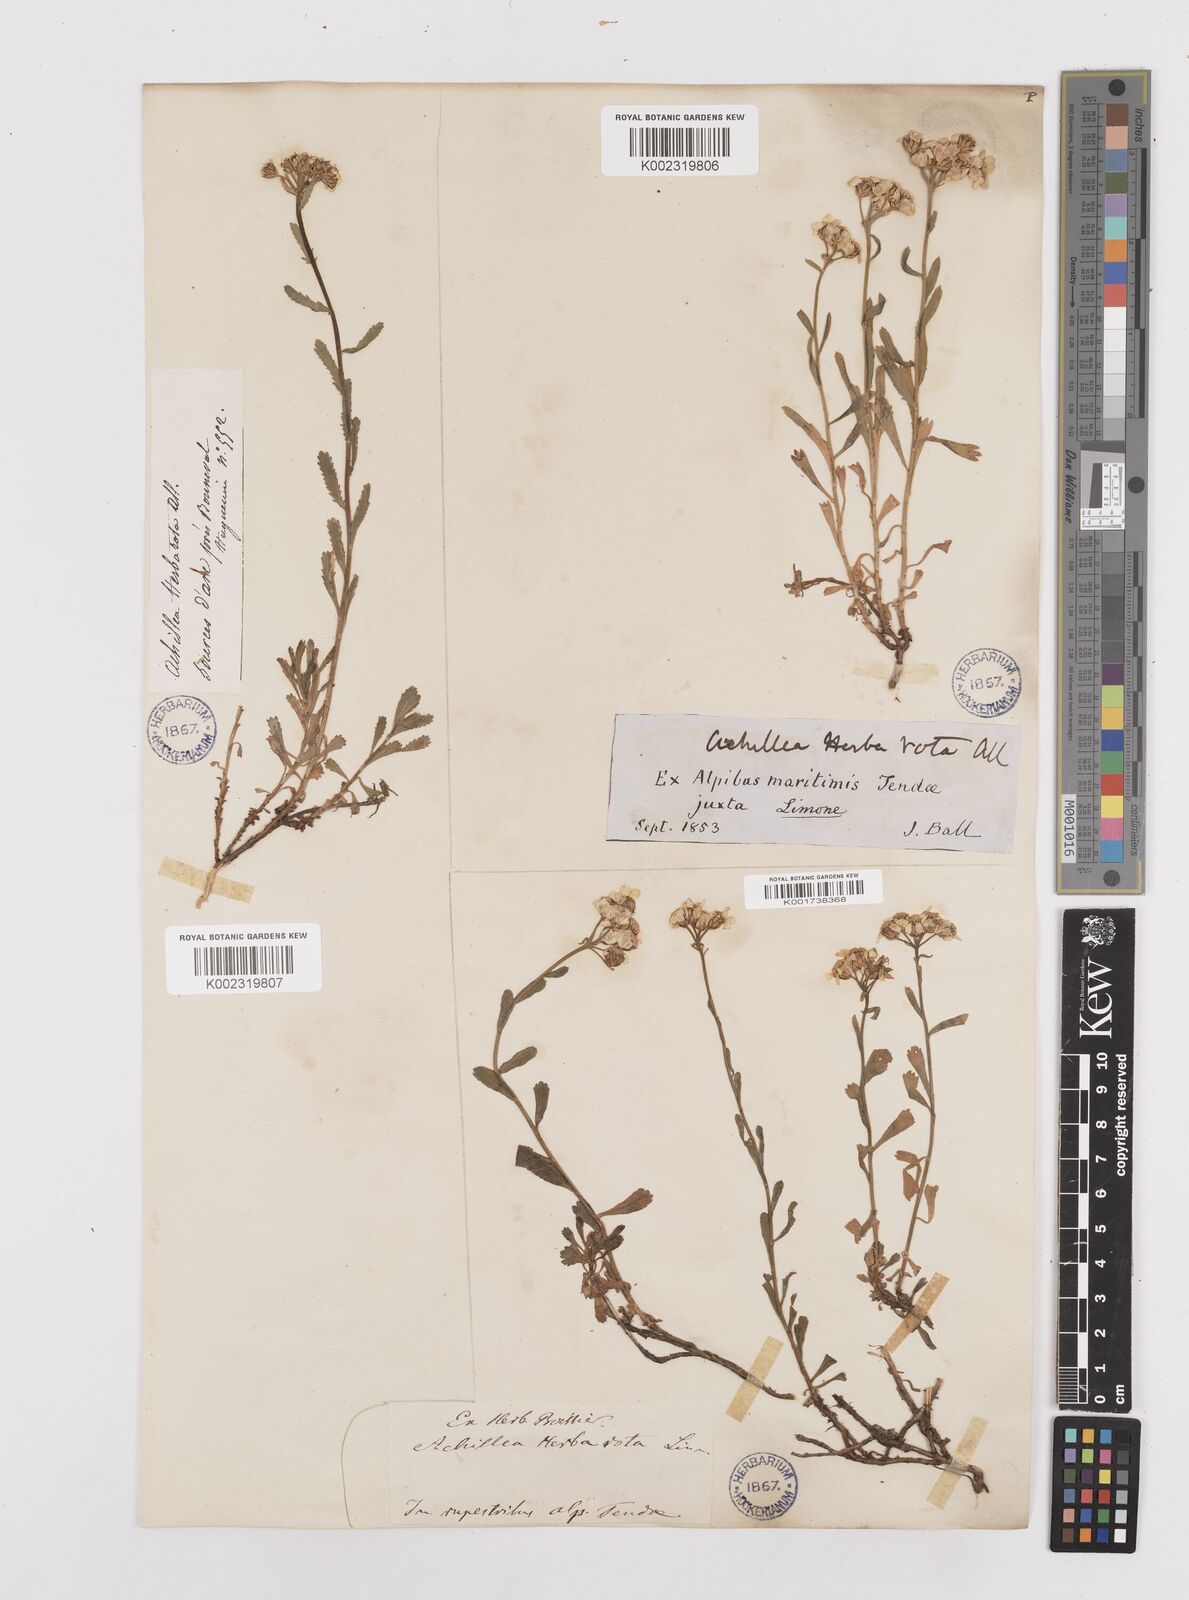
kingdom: Plantae
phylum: Tracheophyta
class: Magnoliopsida
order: Asterales
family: Asteraceae
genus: Achillea
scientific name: Achillea erba-rotta
